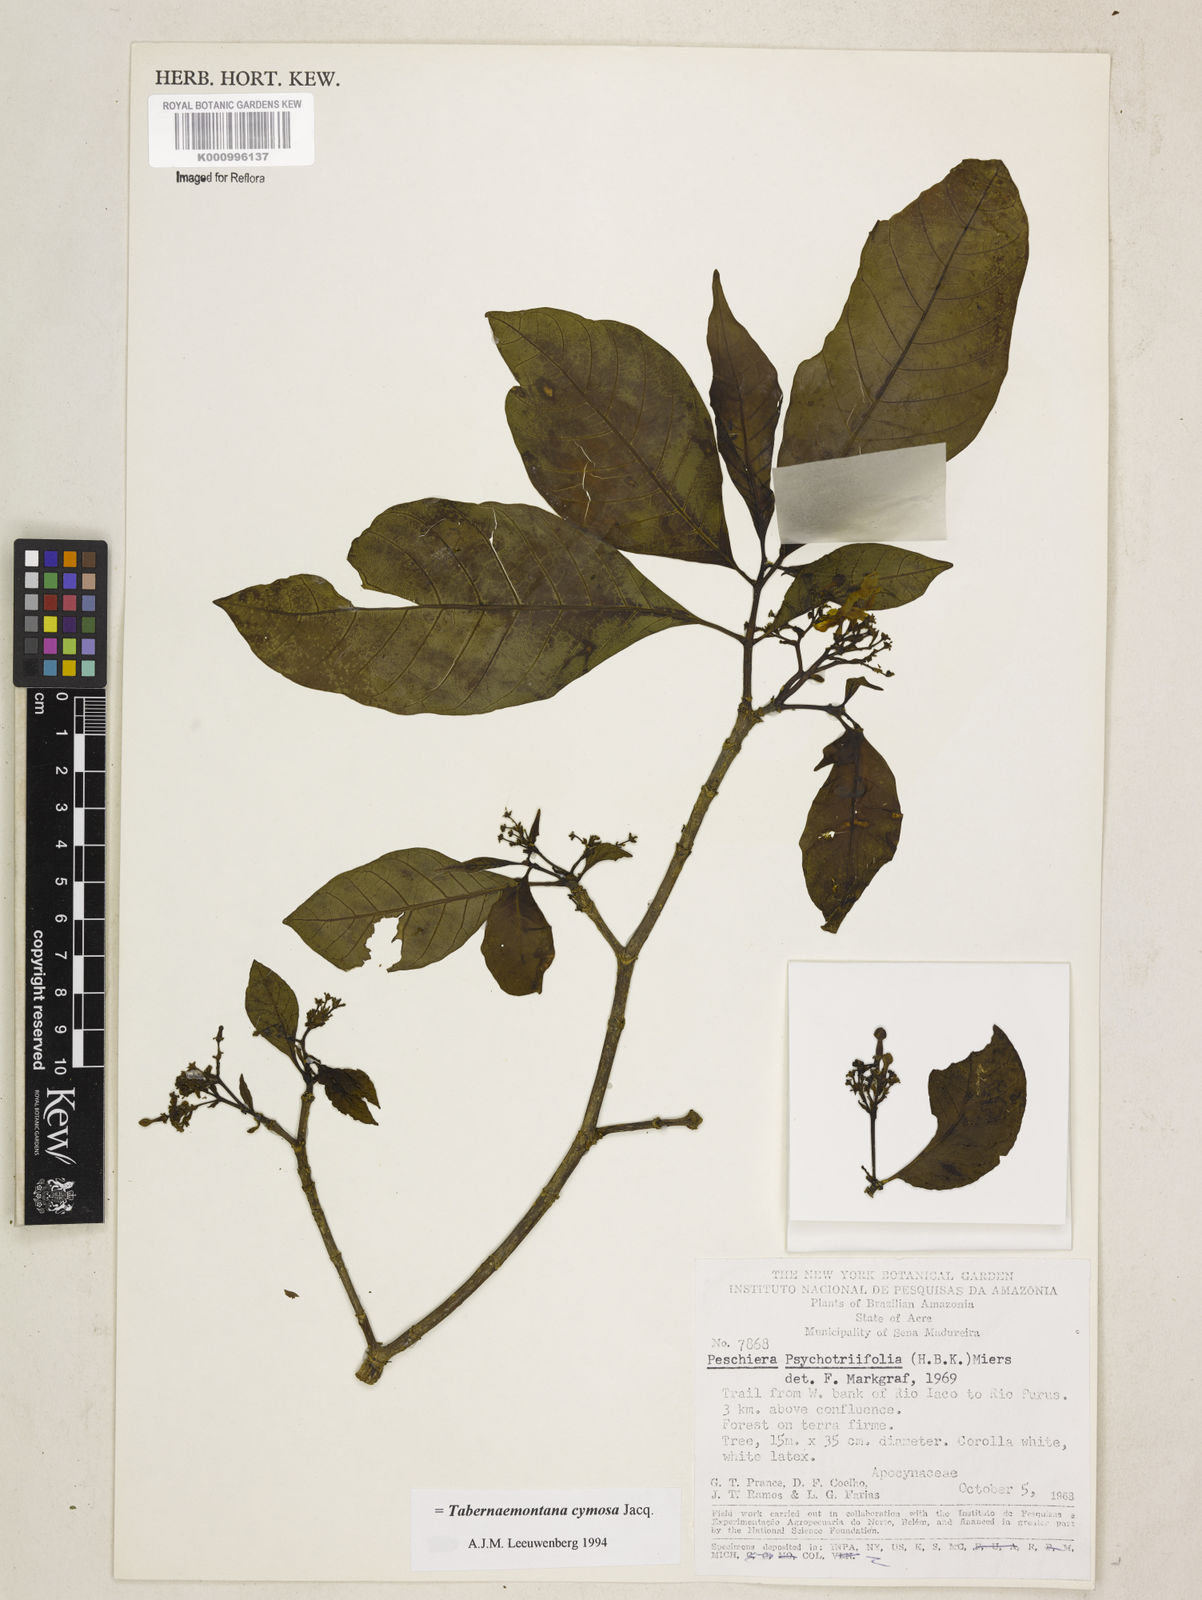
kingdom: Plantae
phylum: Tracheophyta
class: Magnoliopsida
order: Gentianales
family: Apocynaceae
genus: Tabernaemontana
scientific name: Tabernaemontana cymosa
